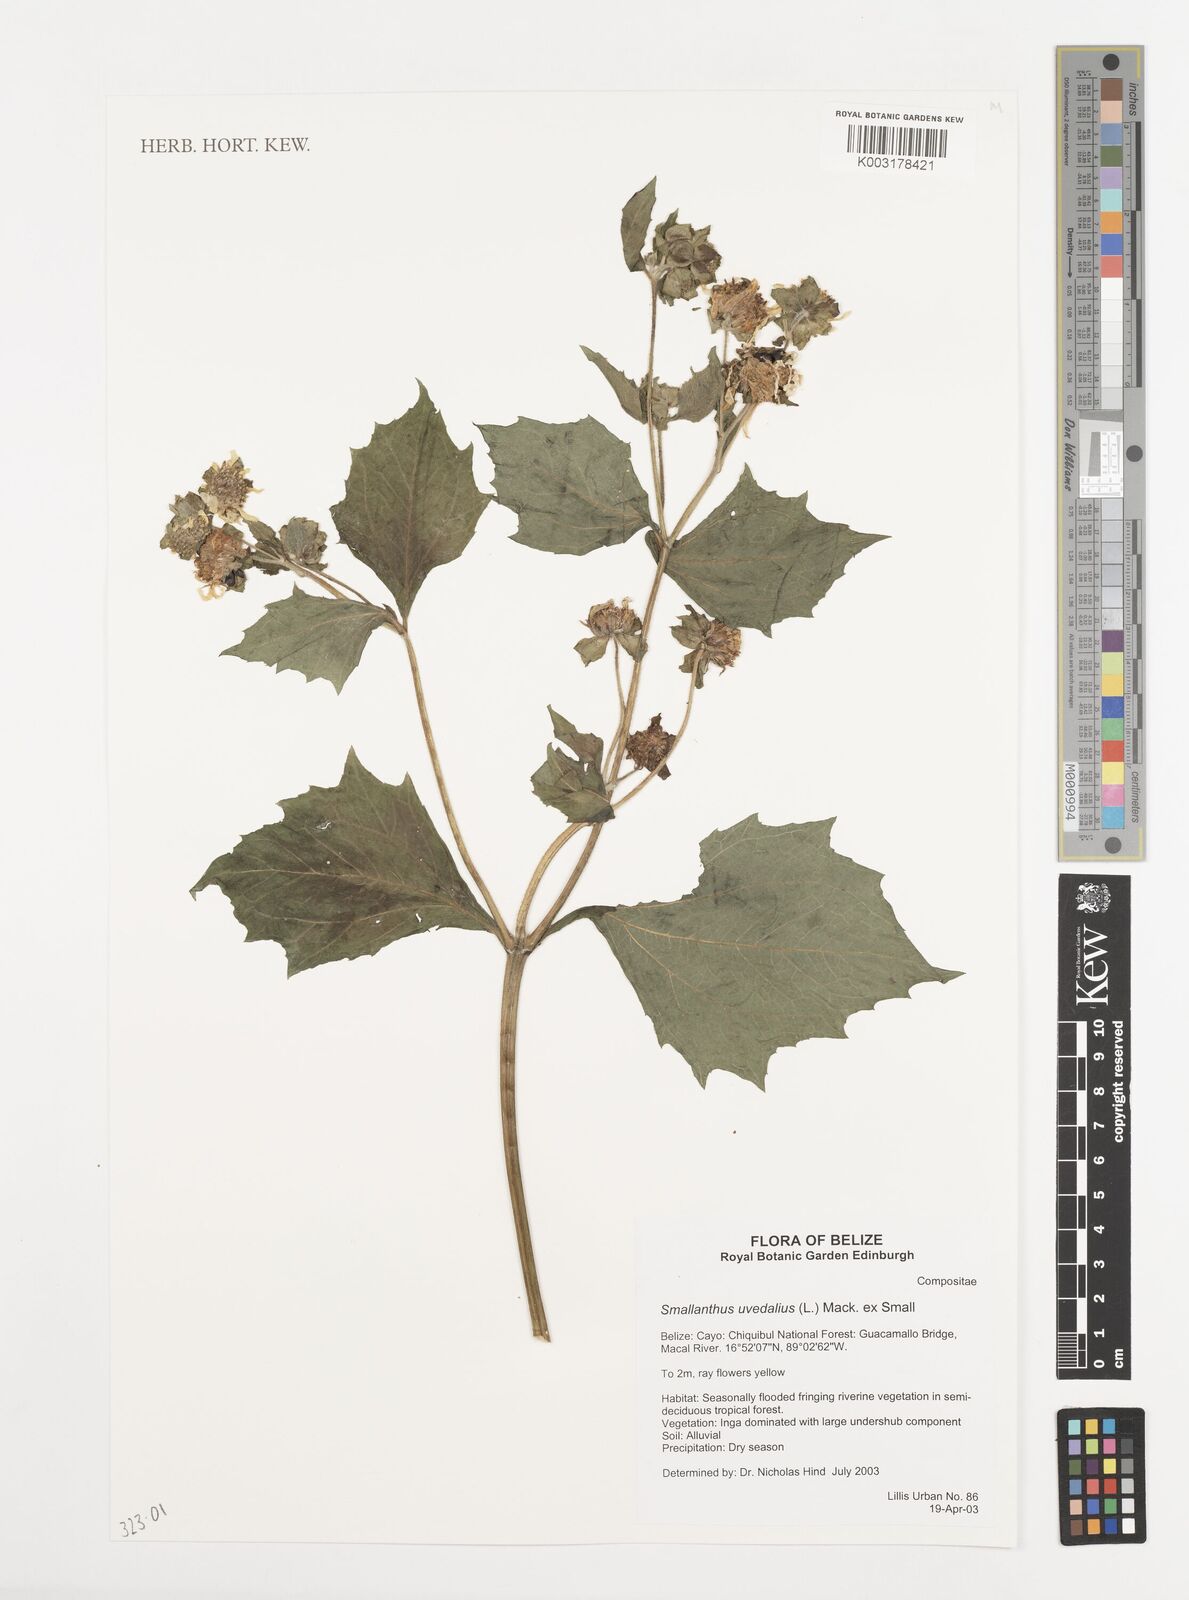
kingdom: Plantae
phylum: Tracheophyta
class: Magnoliopsida
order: Asterales
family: Asteraceae
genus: Smallanthus
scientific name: Smallanthus uvedalia
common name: Bear's-foot
